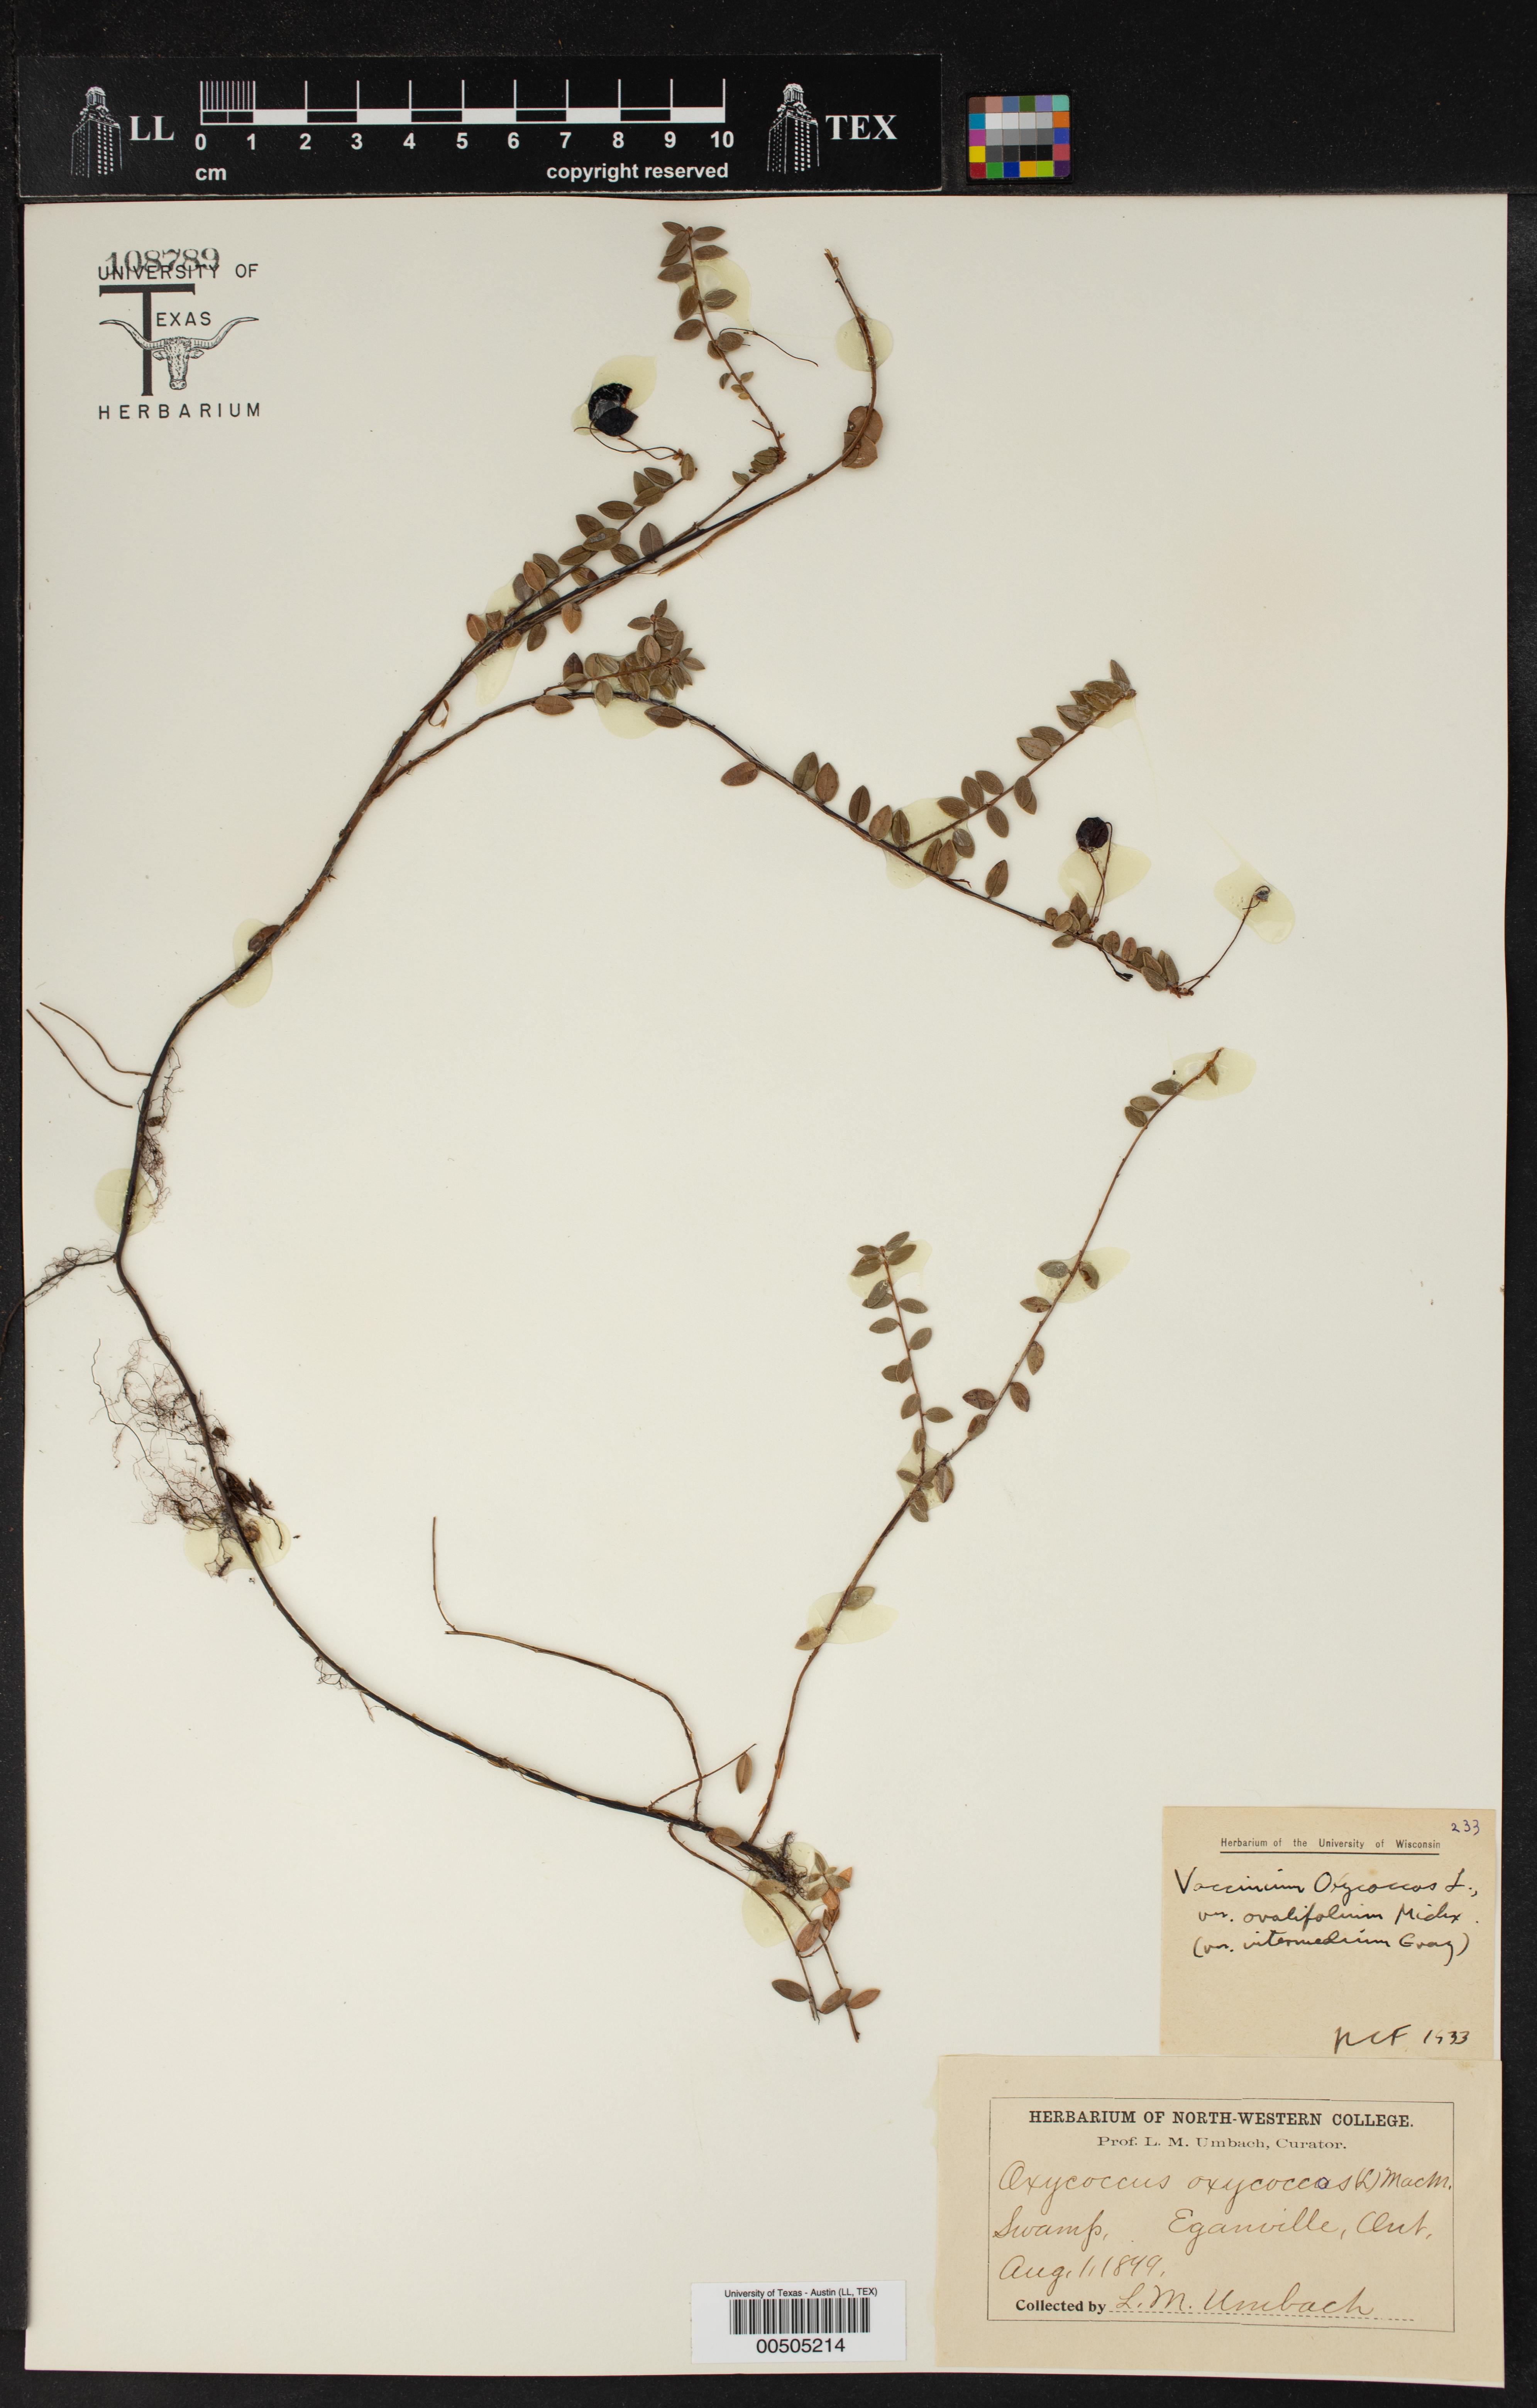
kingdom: Plantae
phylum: Tracheophyta
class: Magnoliopsida
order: Ericales
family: Ericaceae
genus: Vaccinium
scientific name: Vaccinium oxycoccos
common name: Cranberry
